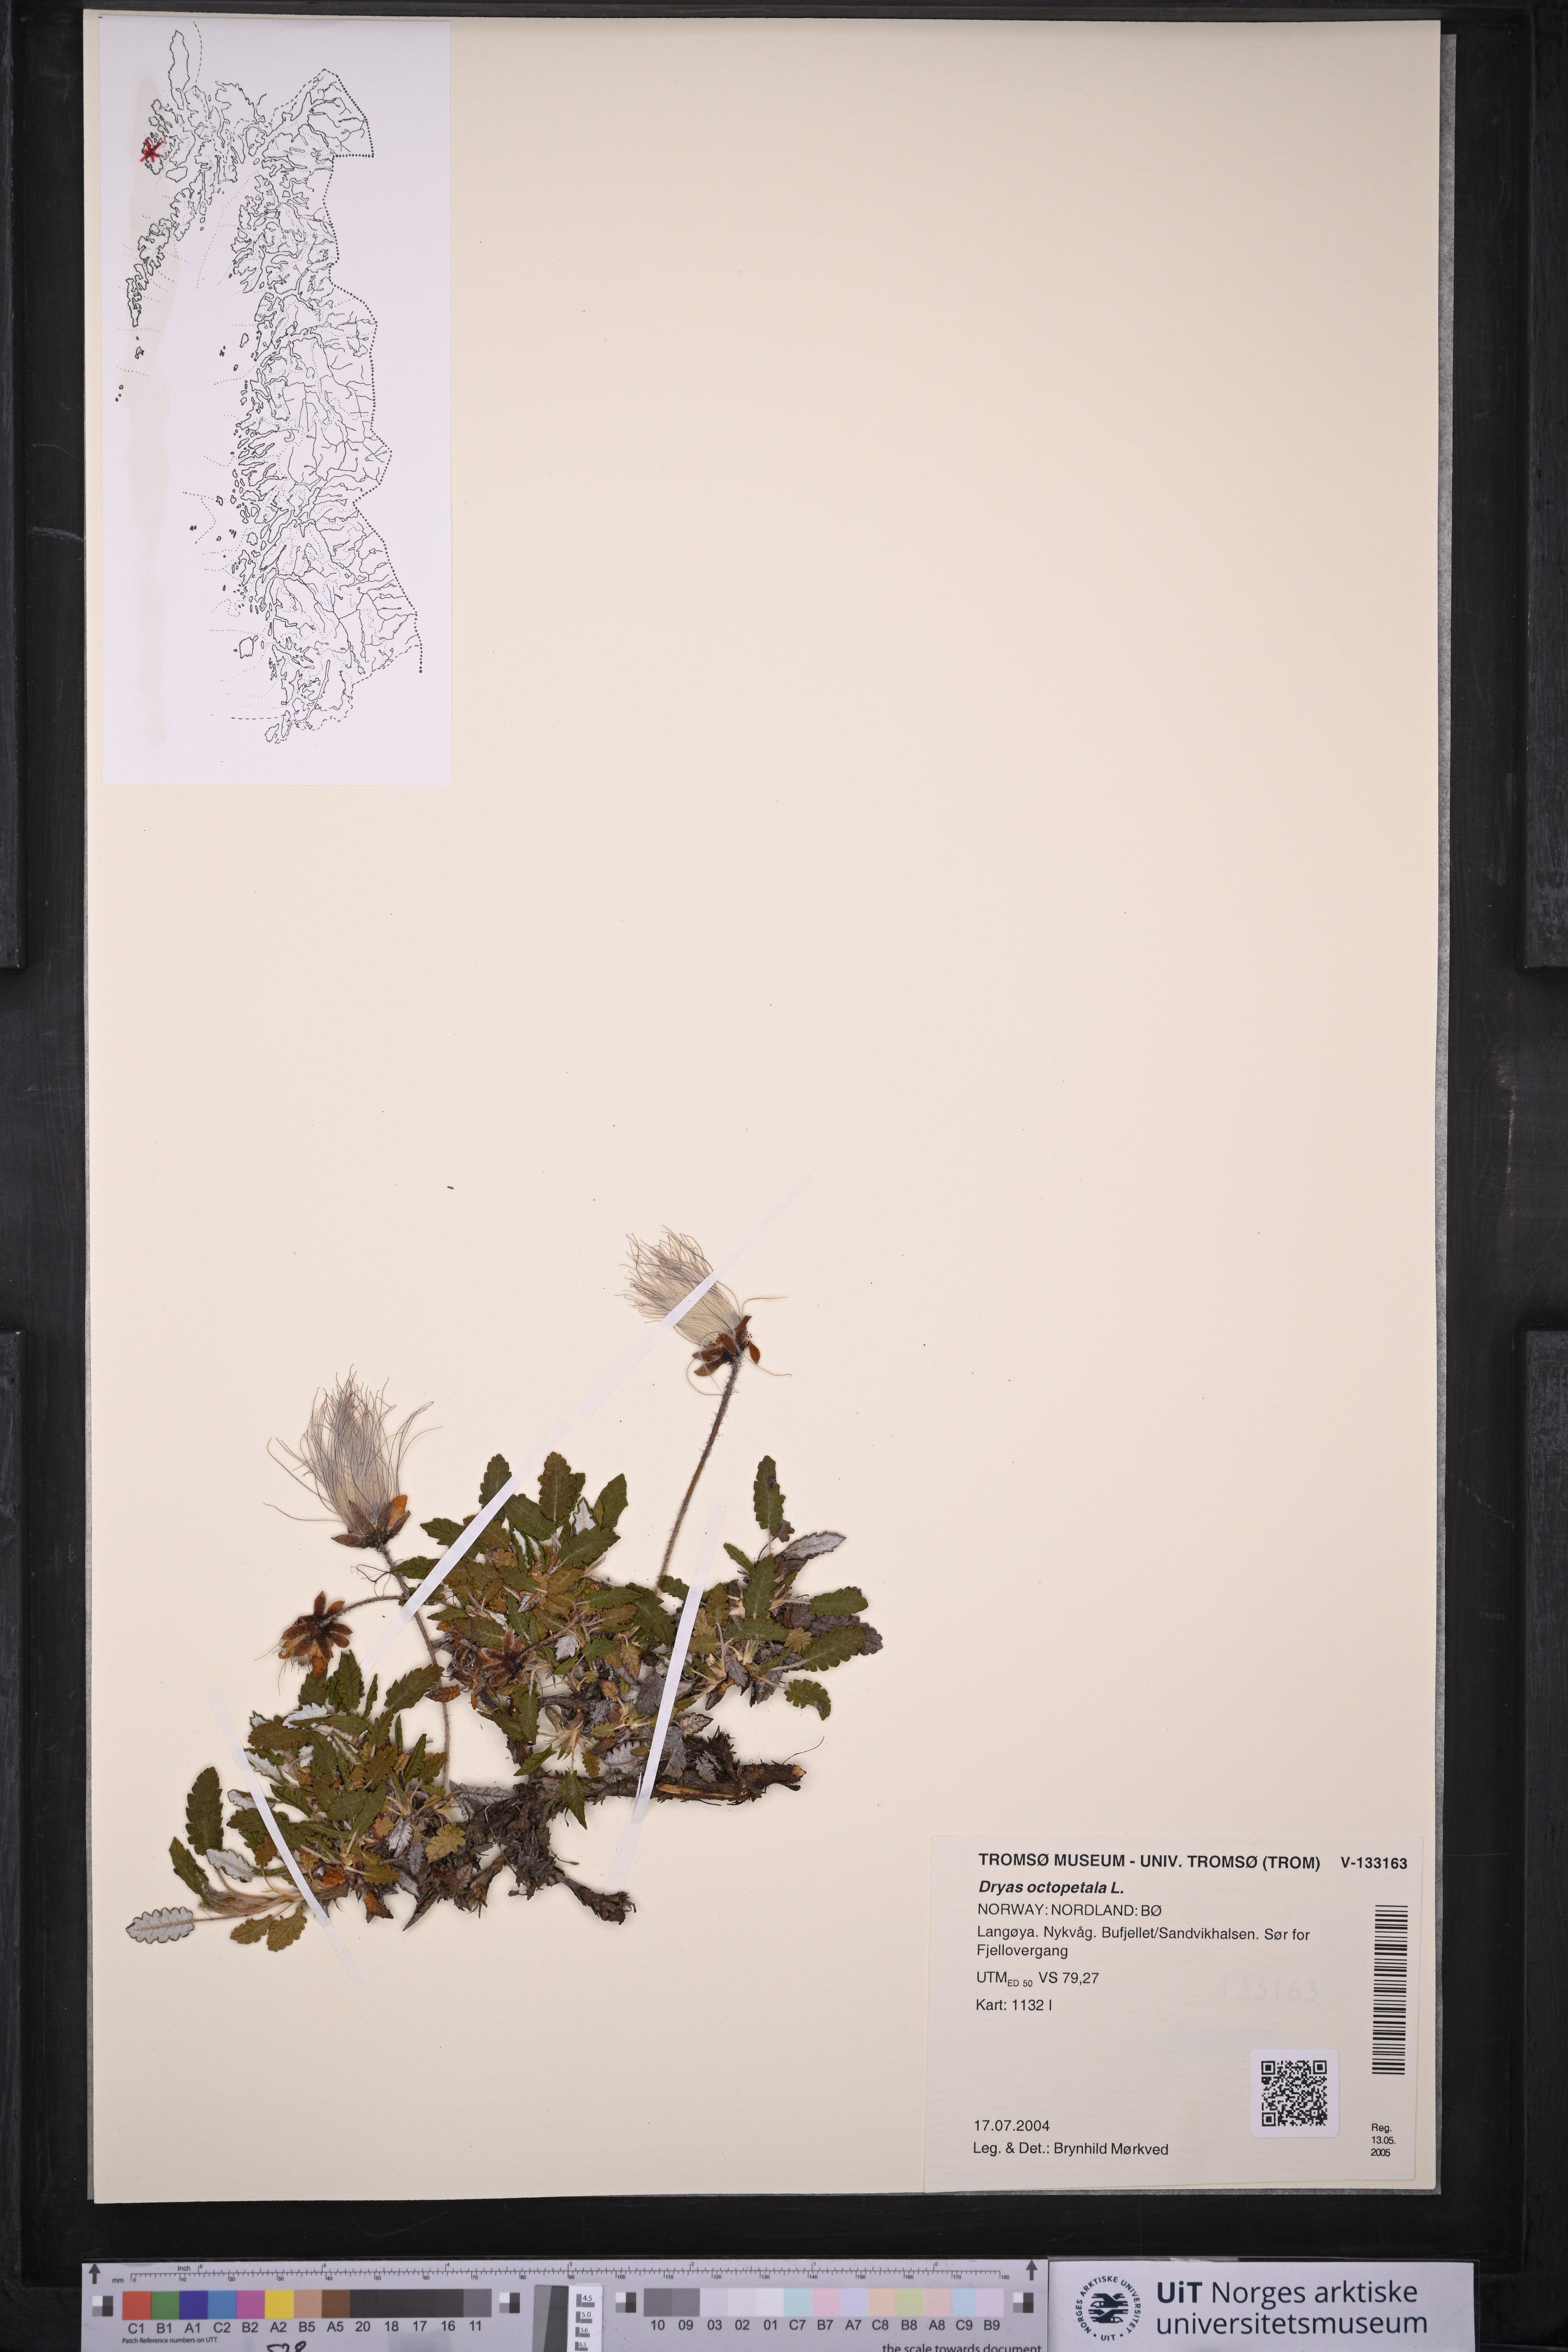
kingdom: Plantae
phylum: Tracheophyta
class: Magnoliopsida
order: Rosales
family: Rosaceae
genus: Dryas
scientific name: Dryas octopetala
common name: Eight-petal mountain-avens
